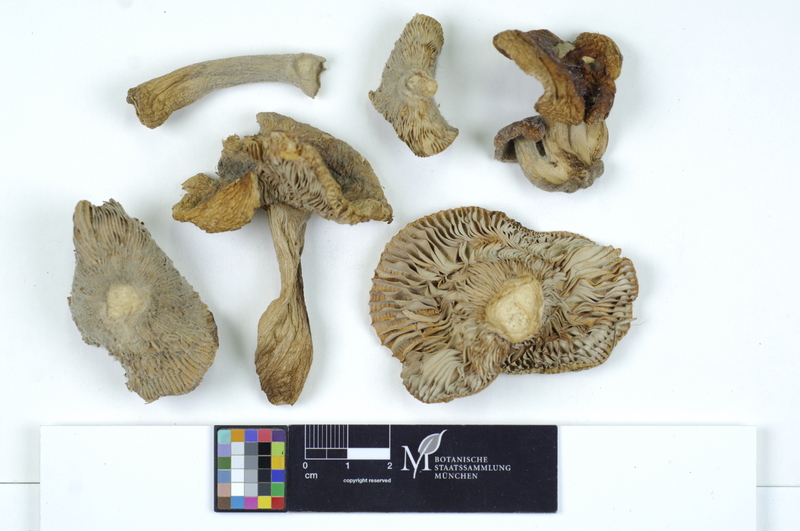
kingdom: Fungi
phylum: Basidiomycota
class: Agaricomycetes
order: Russulales
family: Russulaceae
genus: Russula
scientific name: Russula parazurea
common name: Powdery brittlegill
